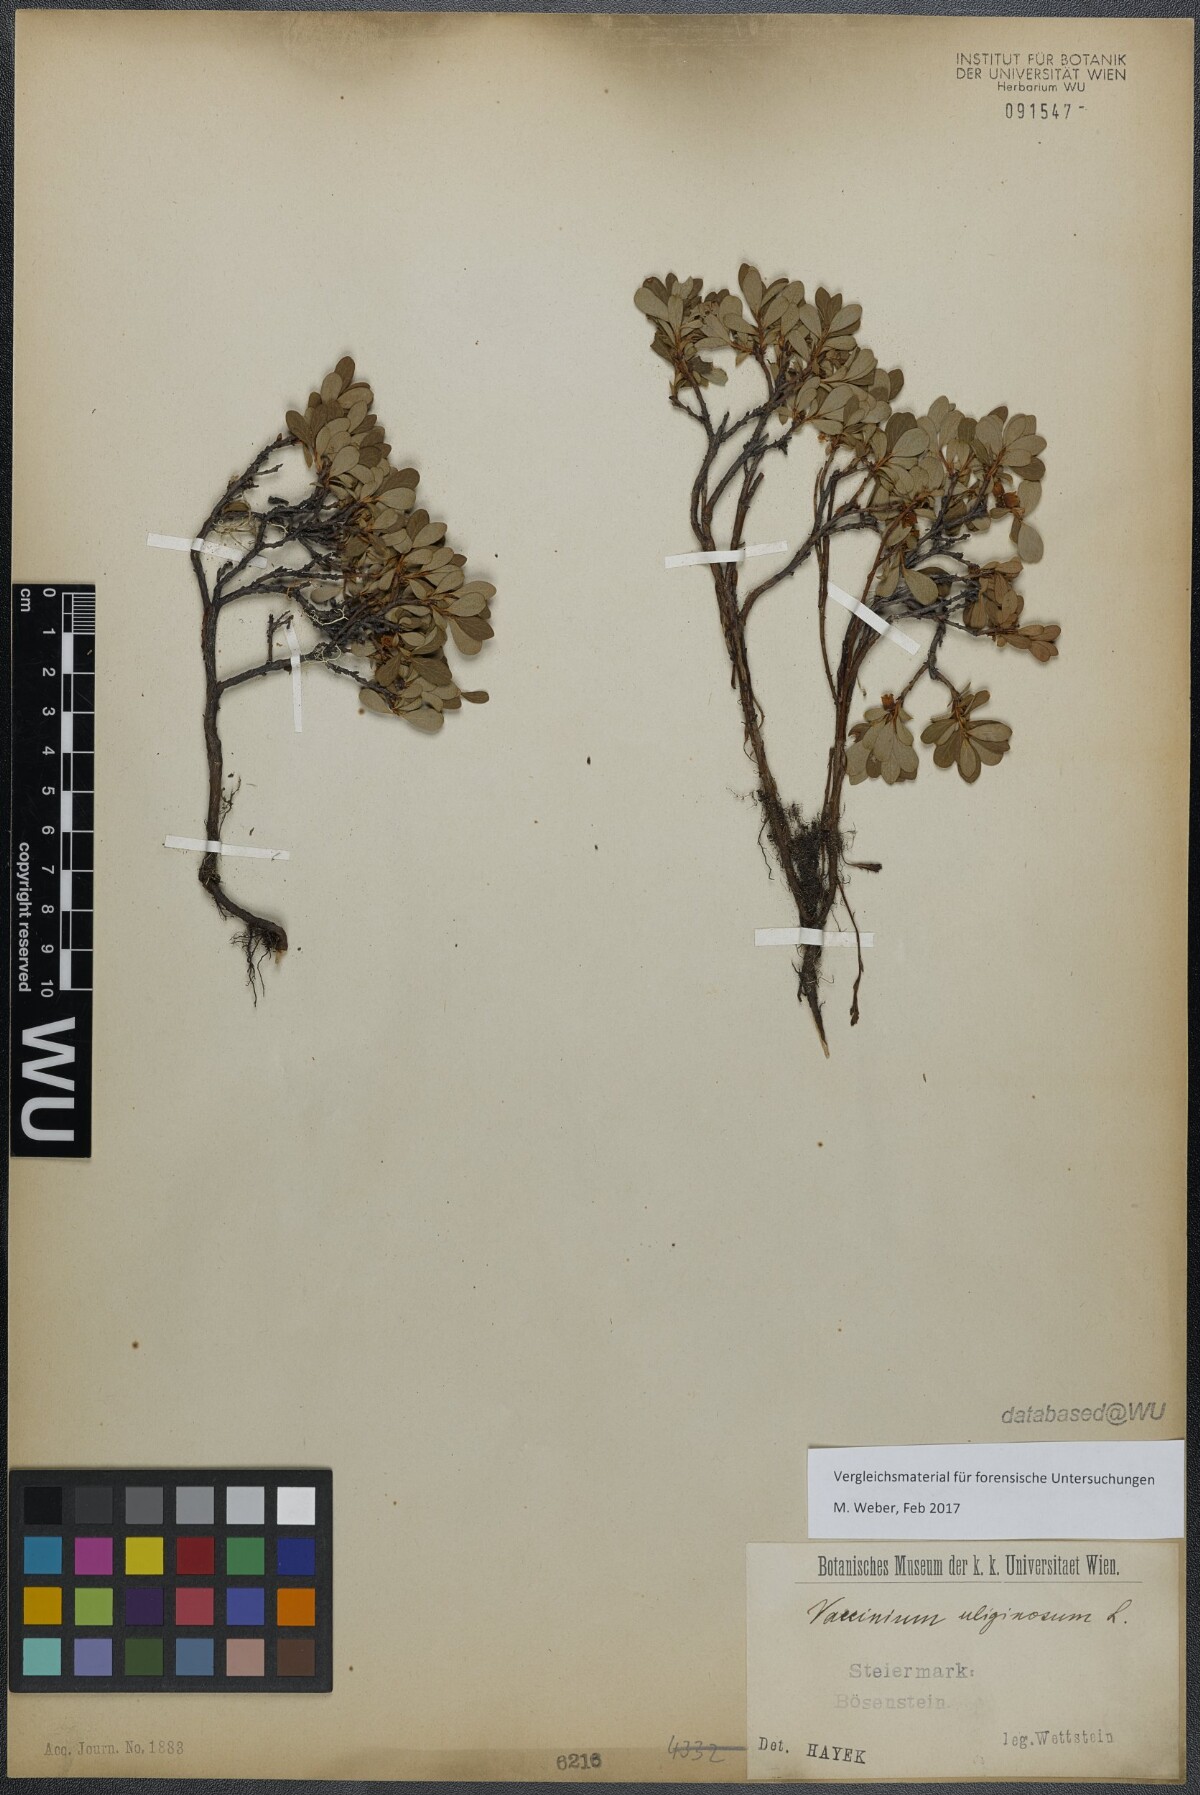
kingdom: Plantae
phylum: Tracheophyta
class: Magnoliopsida
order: Ericales
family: Ericaceae
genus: Vaccinium
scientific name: Vaccinium uliginosum
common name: Bog bilberry
